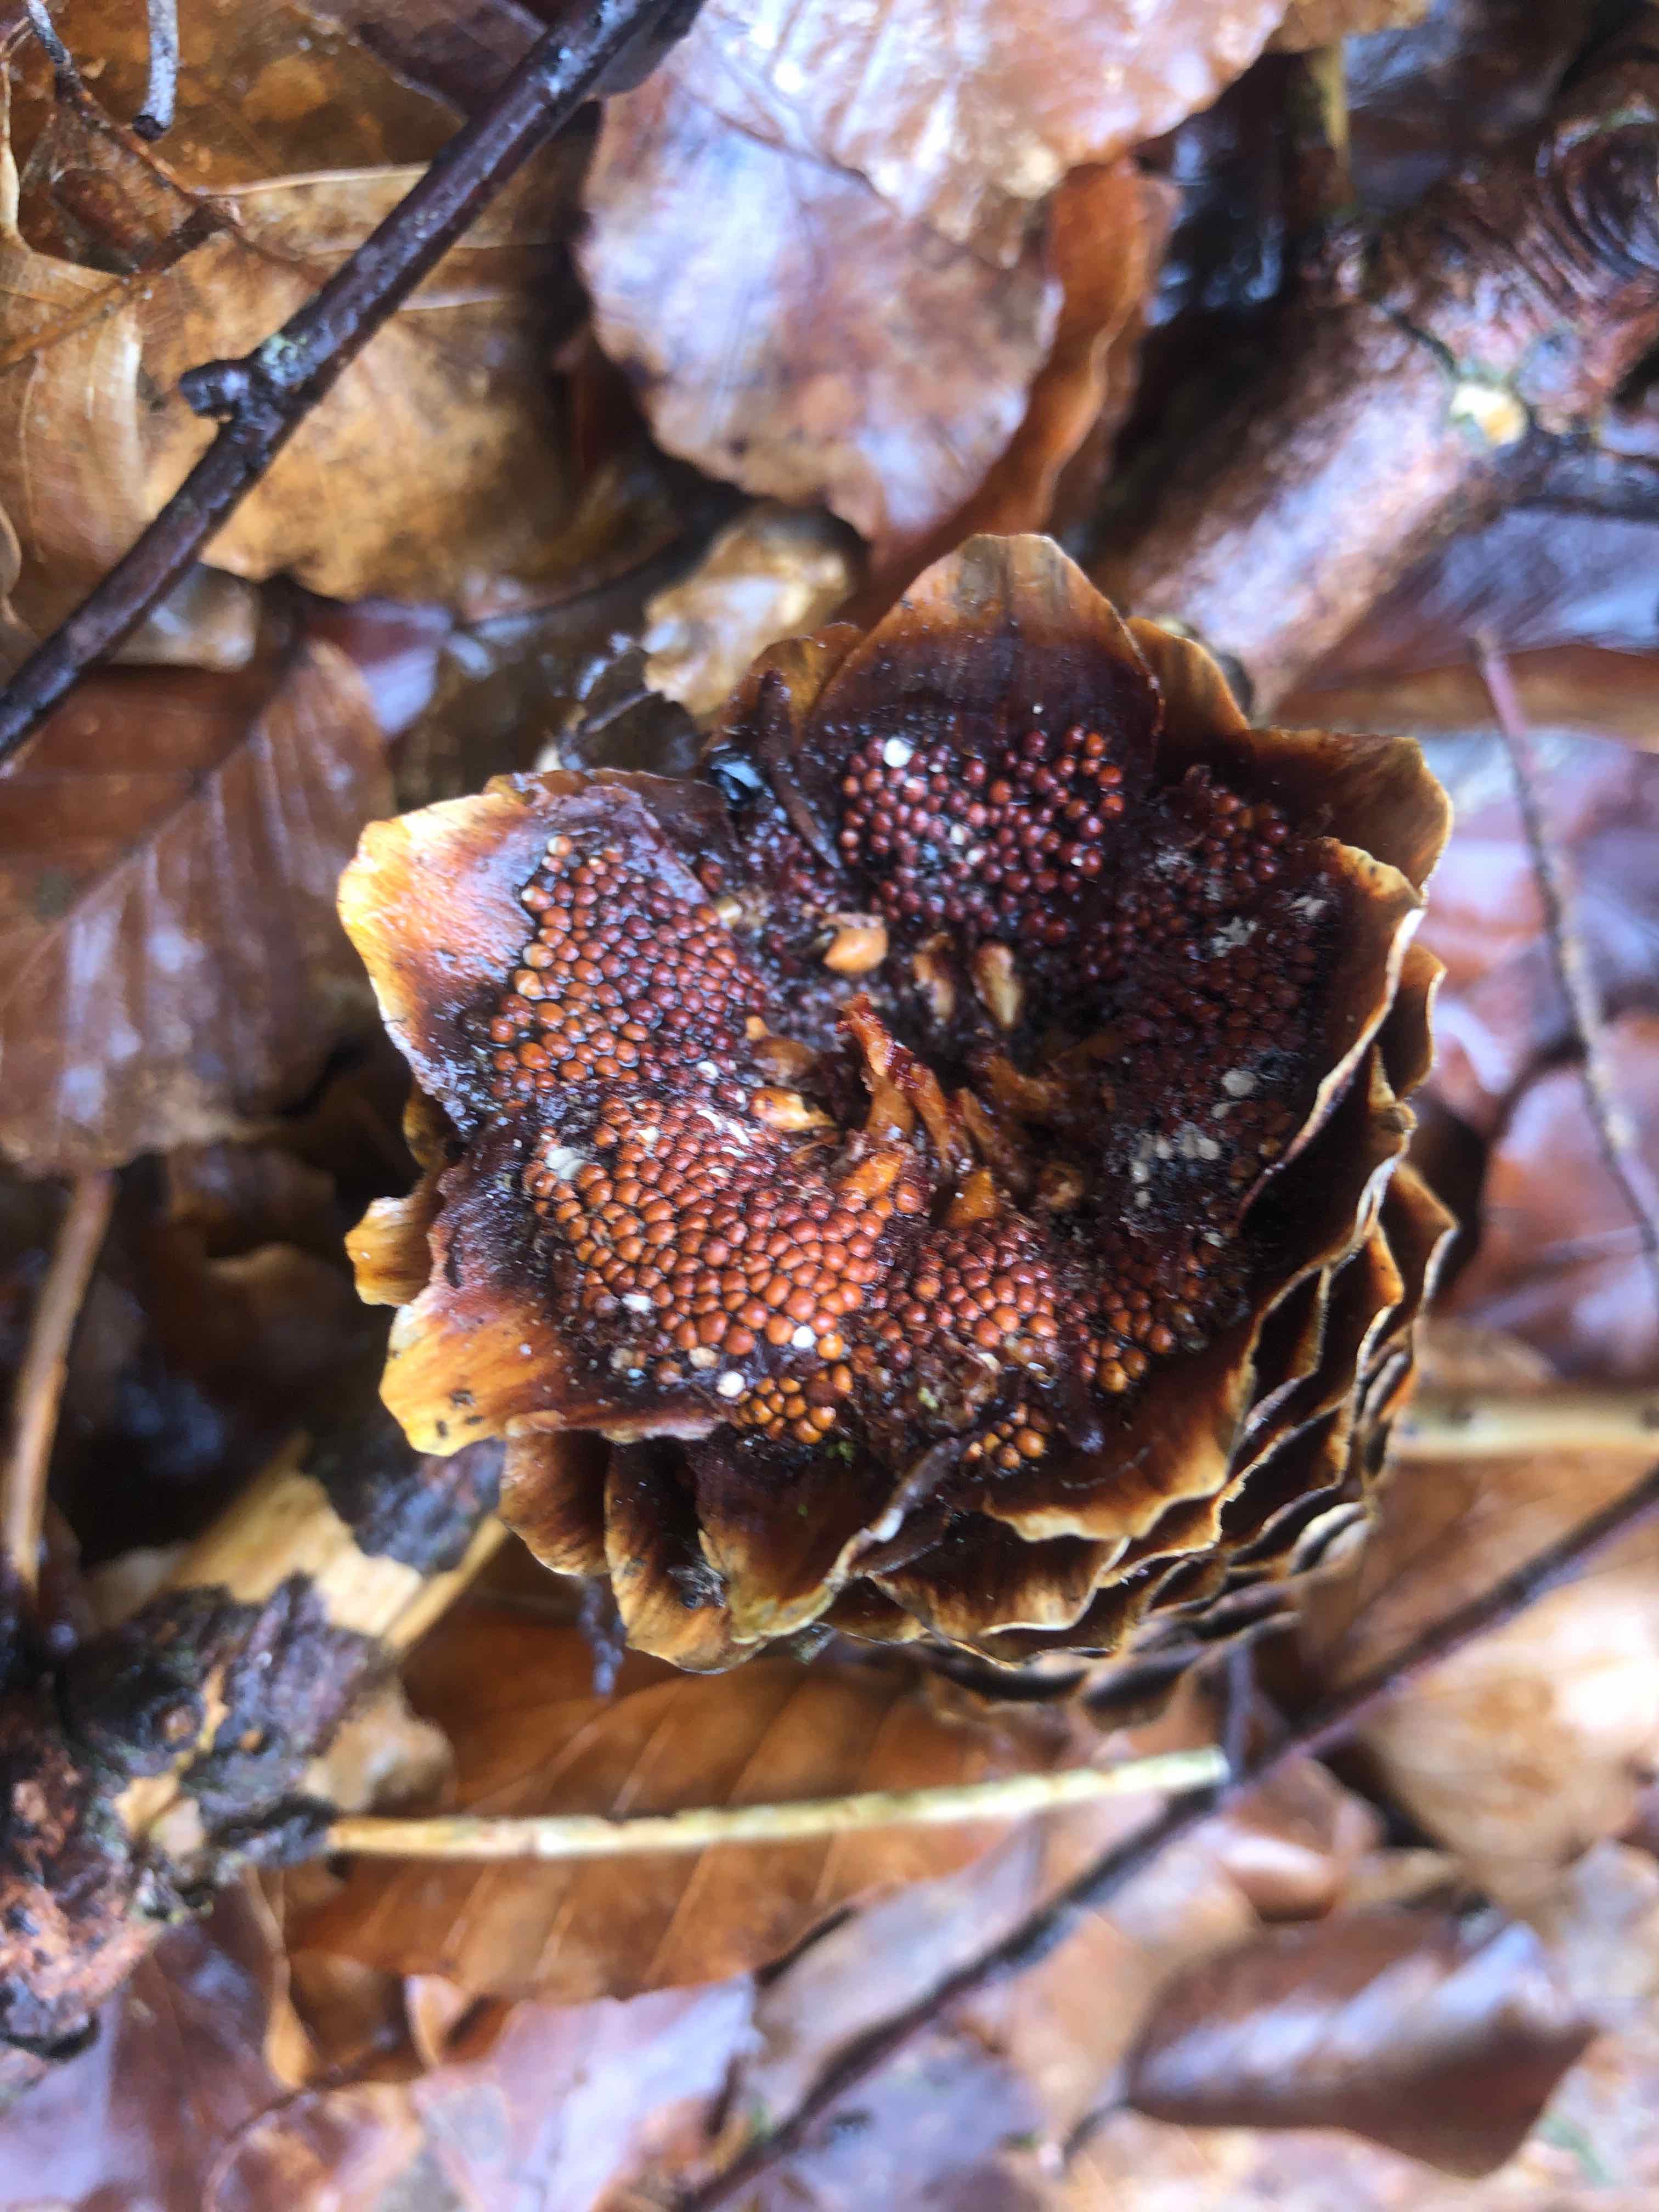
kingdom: Fungi
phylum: Basidiomycota
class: Pucciniomycetes
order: Pucciniales
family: Pucciniastraceae
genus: Thekopsora
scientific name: Thekopsora areolata
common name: grankogle-nålerust
